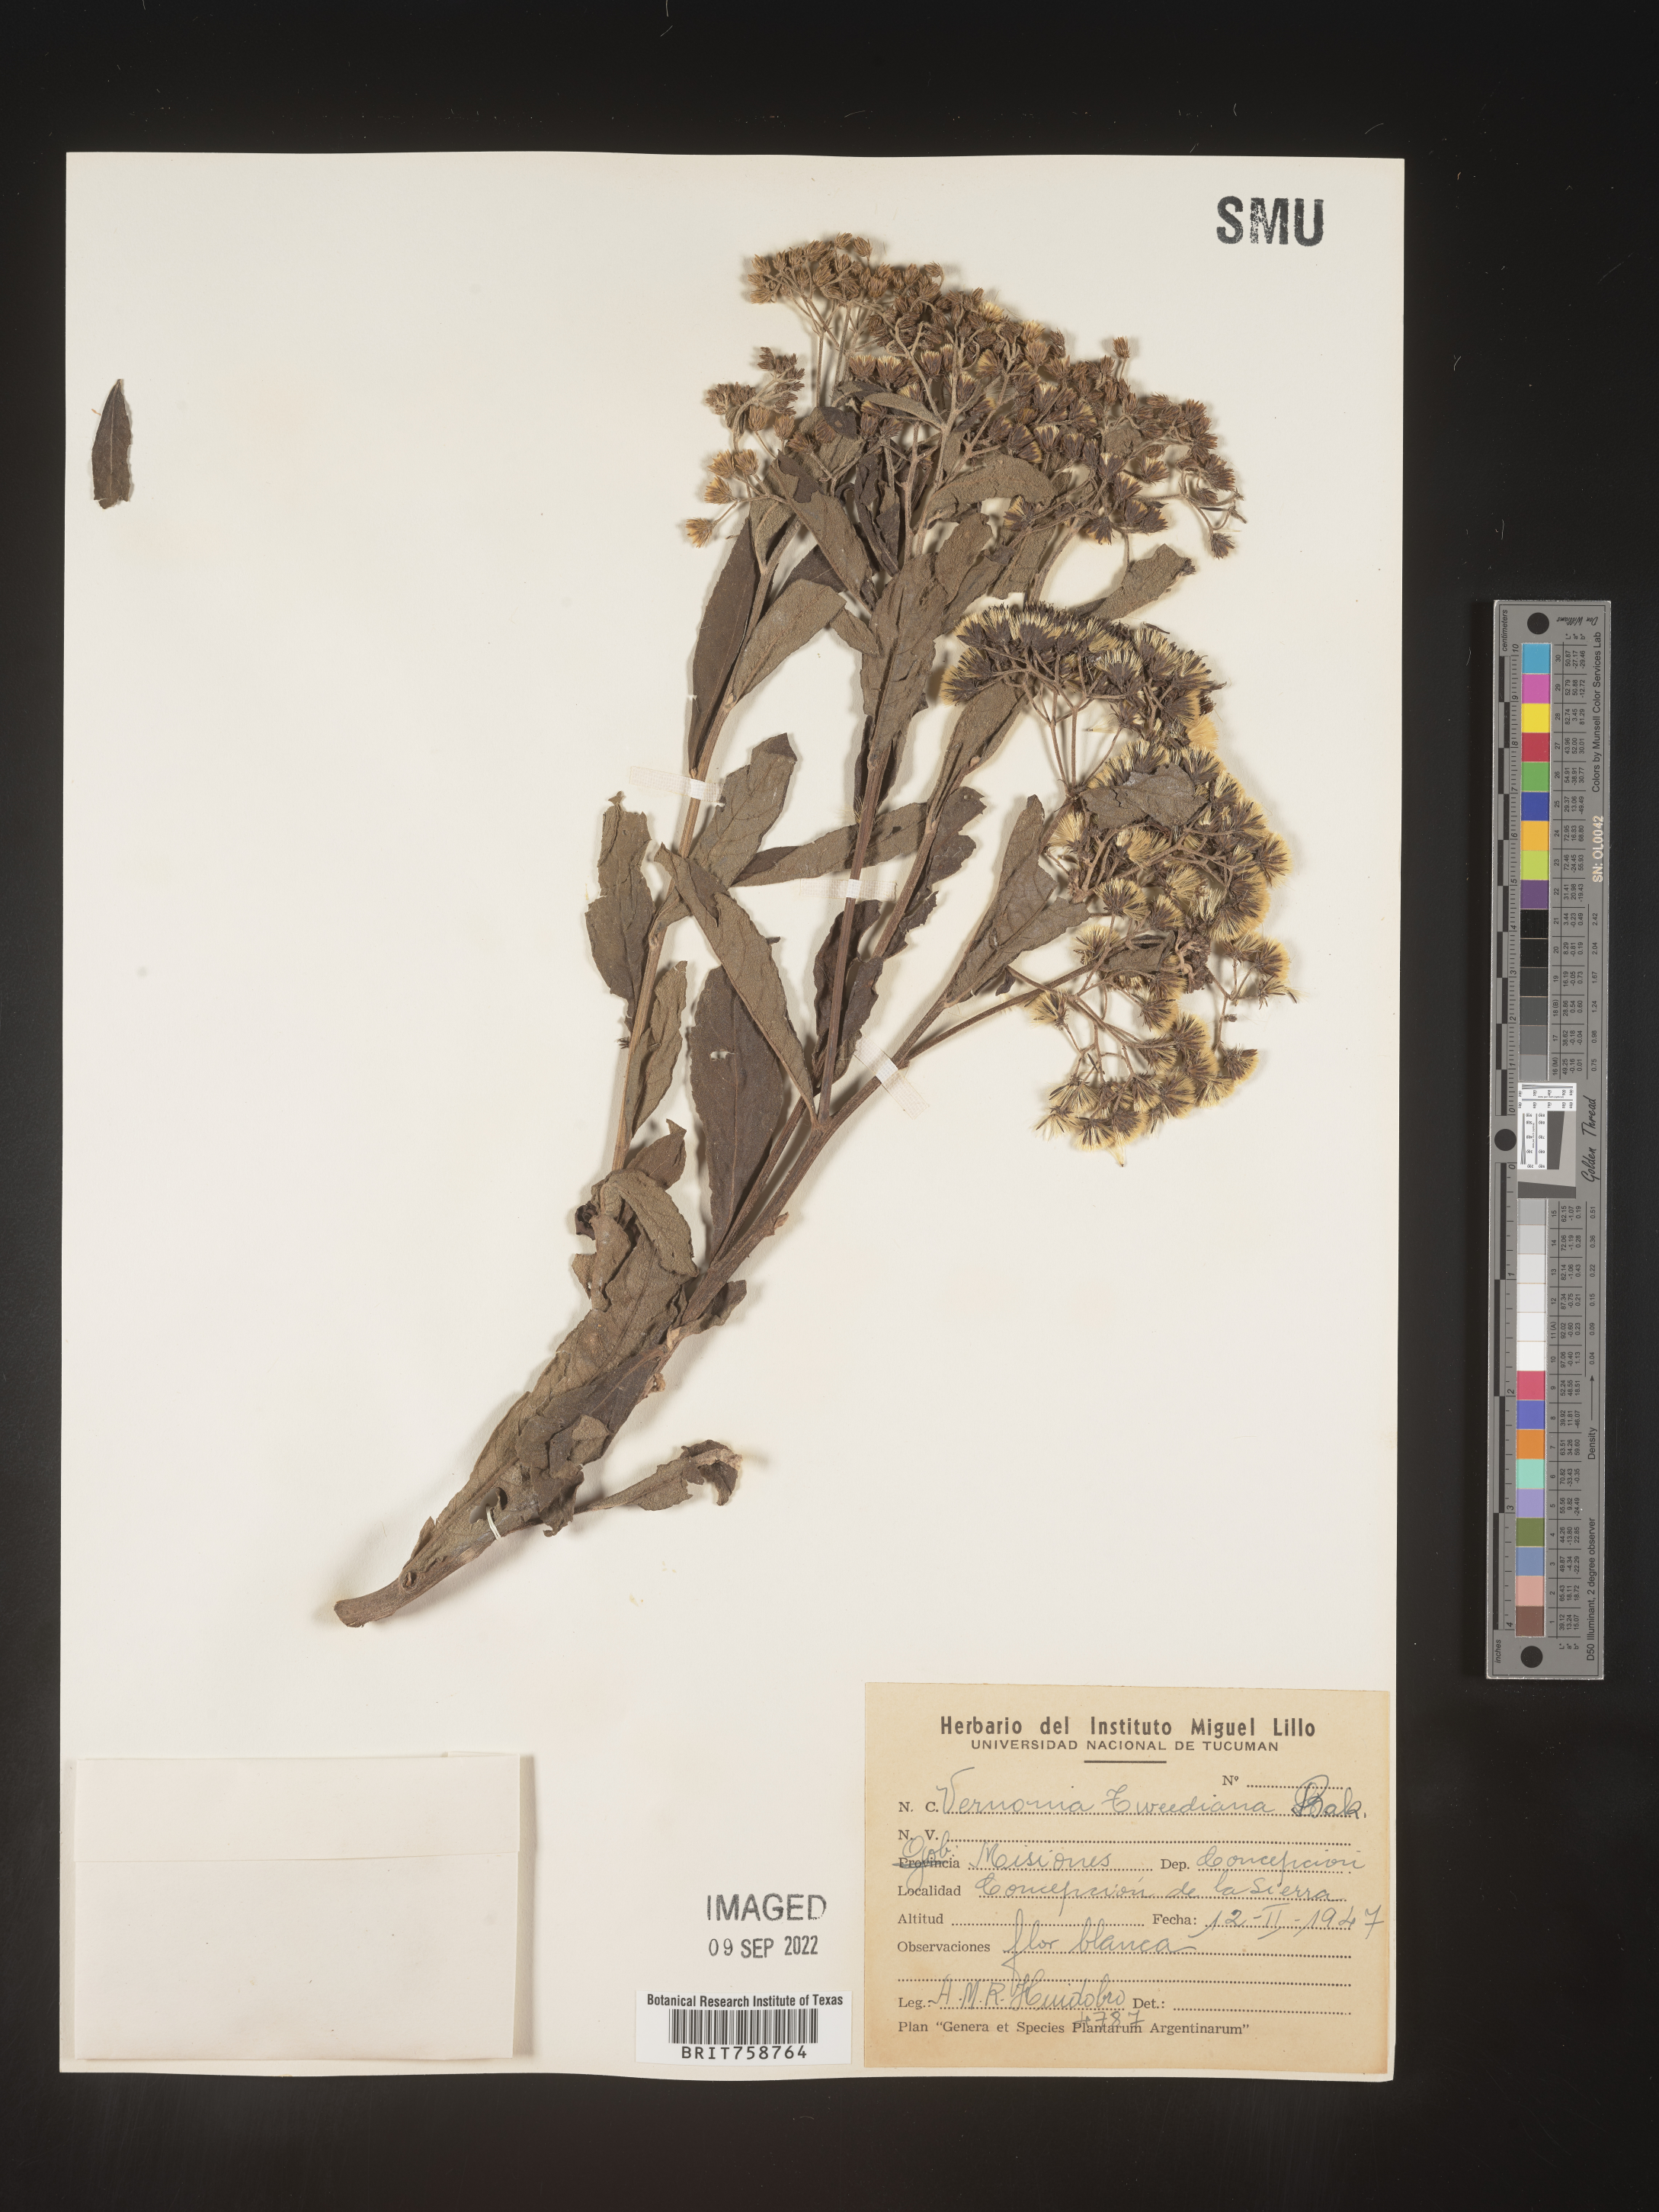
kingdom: Plantae
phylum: Tracheophyta
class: Magnoliopsida
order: Asterales
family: Asteraceae
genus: Vernonia
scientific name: Vernonia
